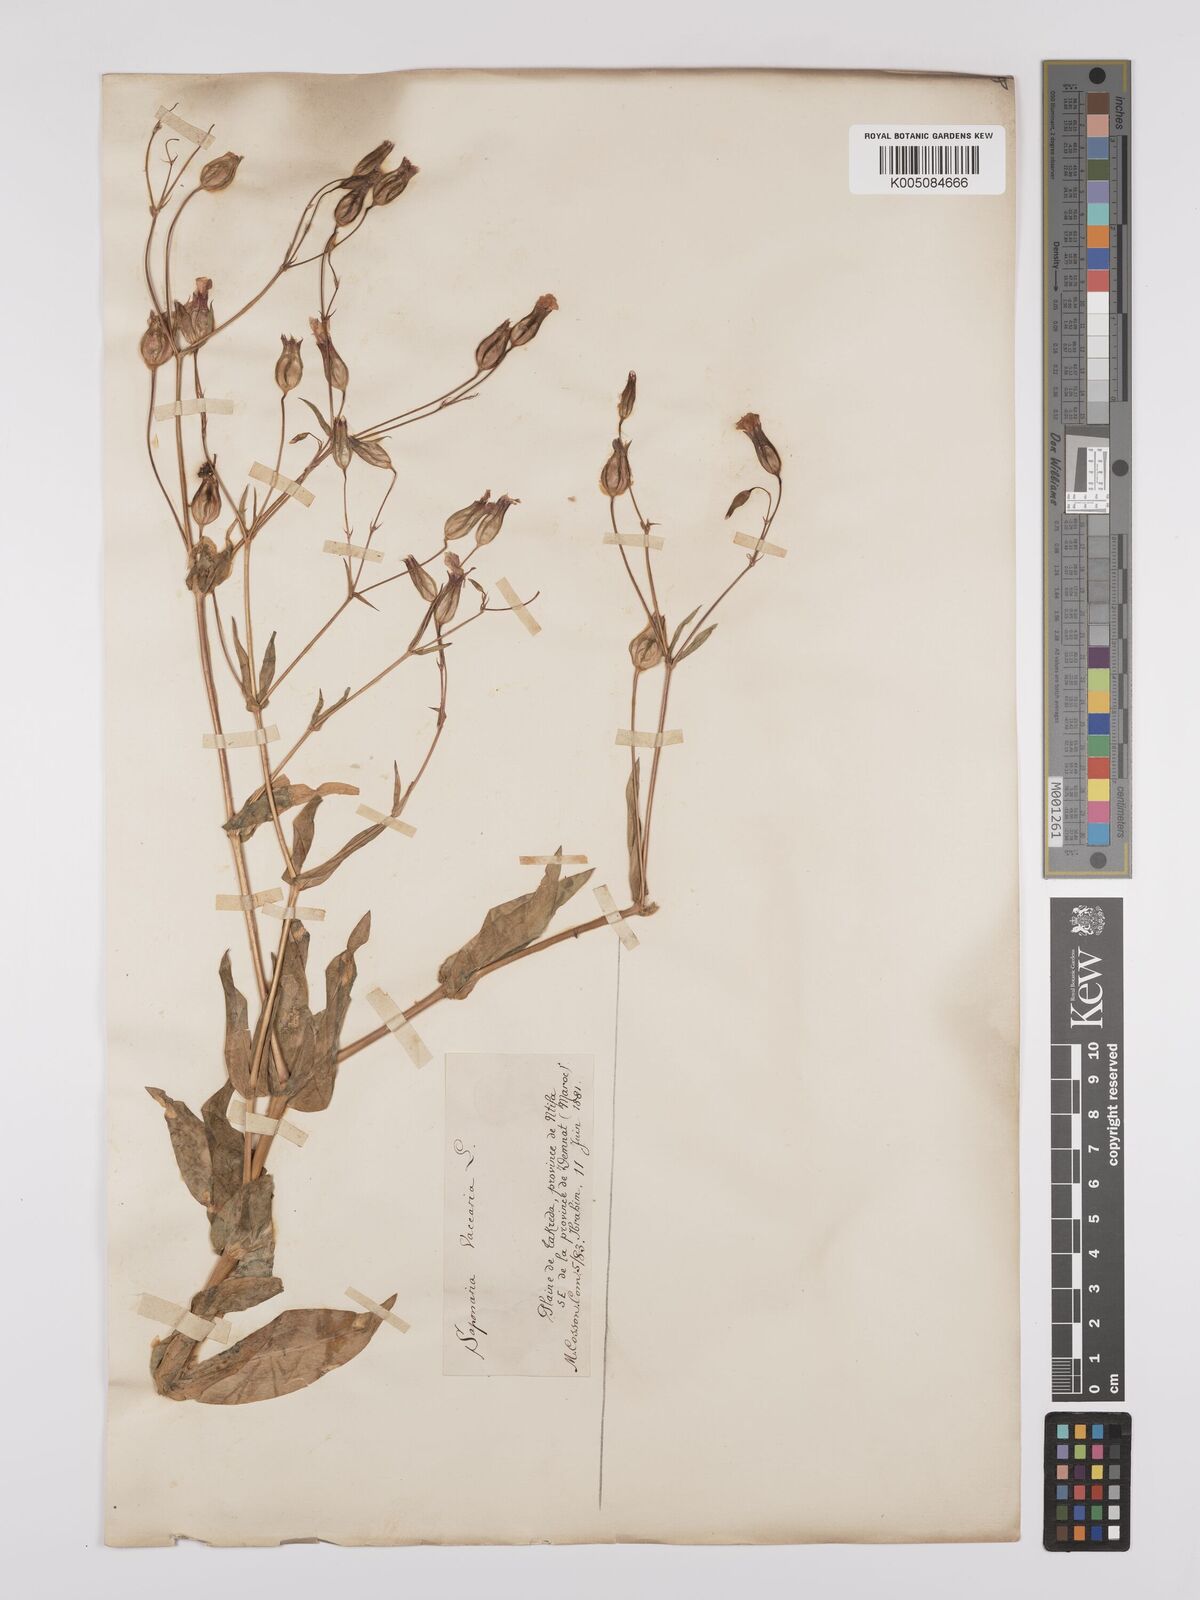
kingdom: Plantae
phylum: Tracheophyta
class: Magnoliopsida
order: Caryophyllales
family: Caryophyllaceae
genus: Gypsophila
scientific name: Gypsophila vaccaria
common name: Cow soapwort
